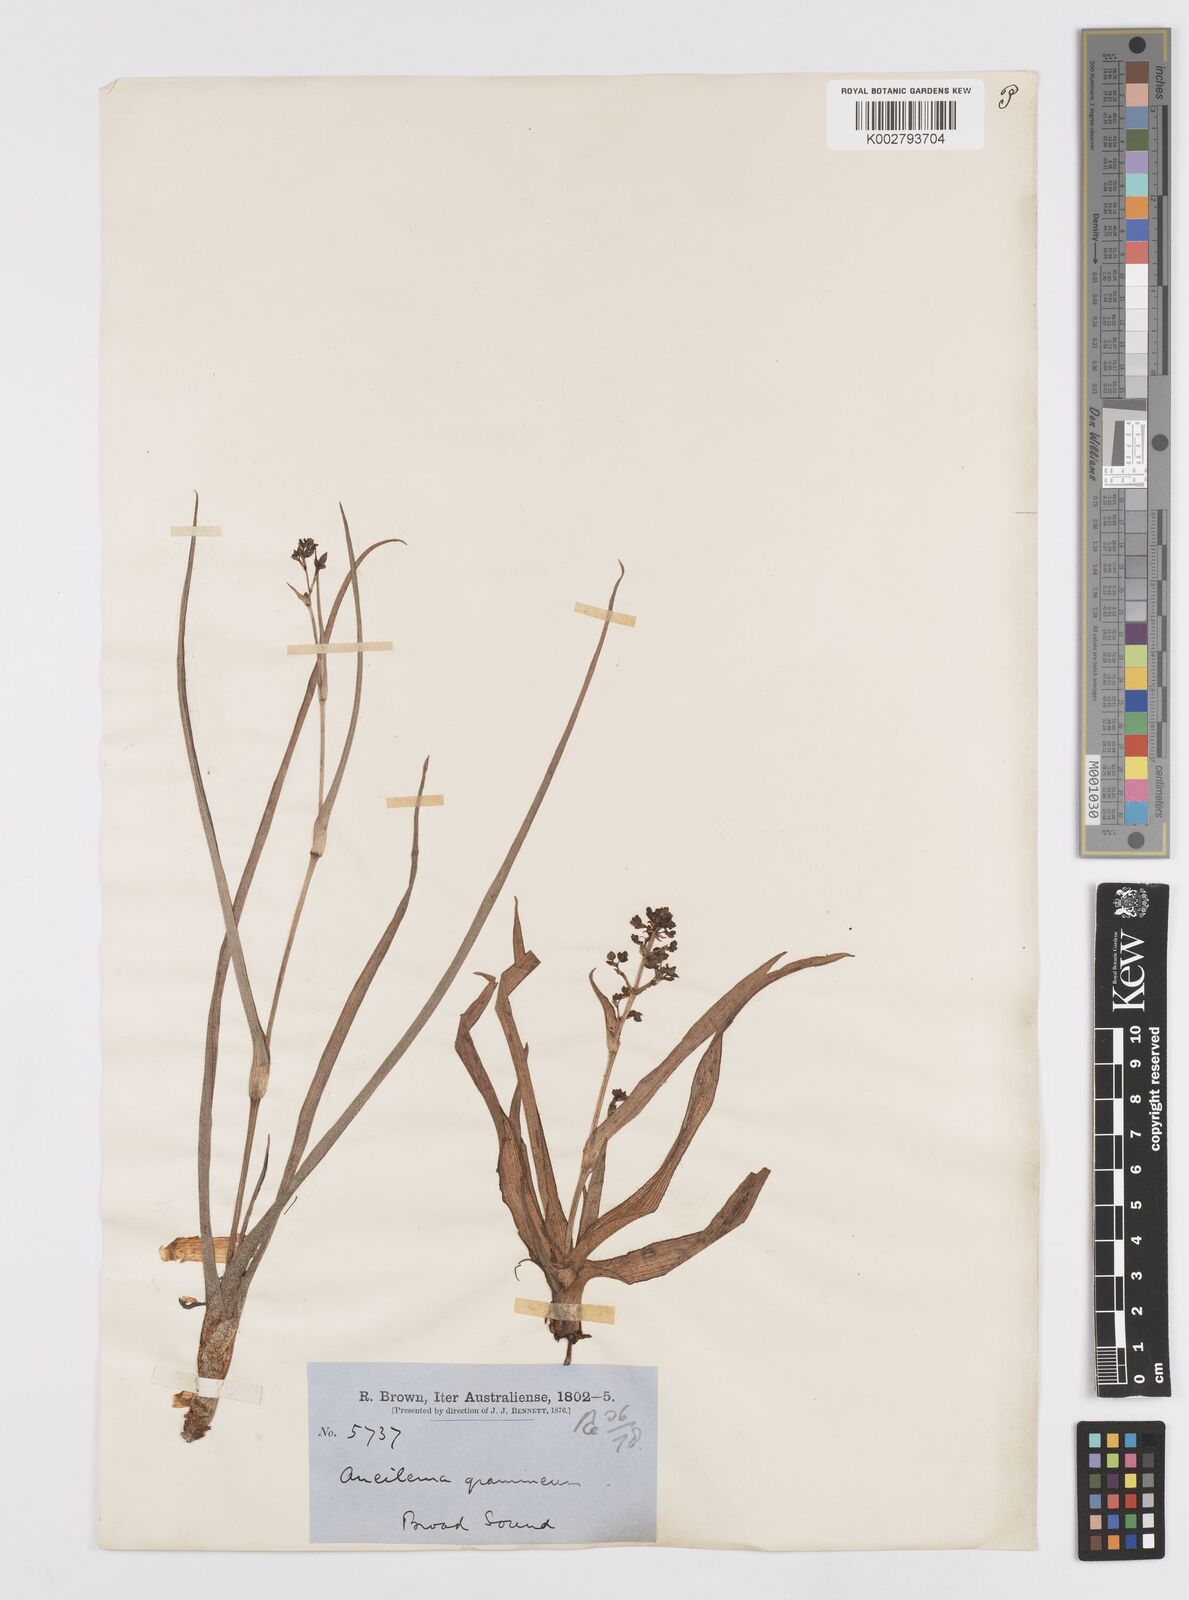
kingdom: Plantae
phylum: Tracheophyta
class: Liliopsida
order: Commelinales
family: Commelinaceae
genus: Murdannia
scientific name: Murdannia graminea
